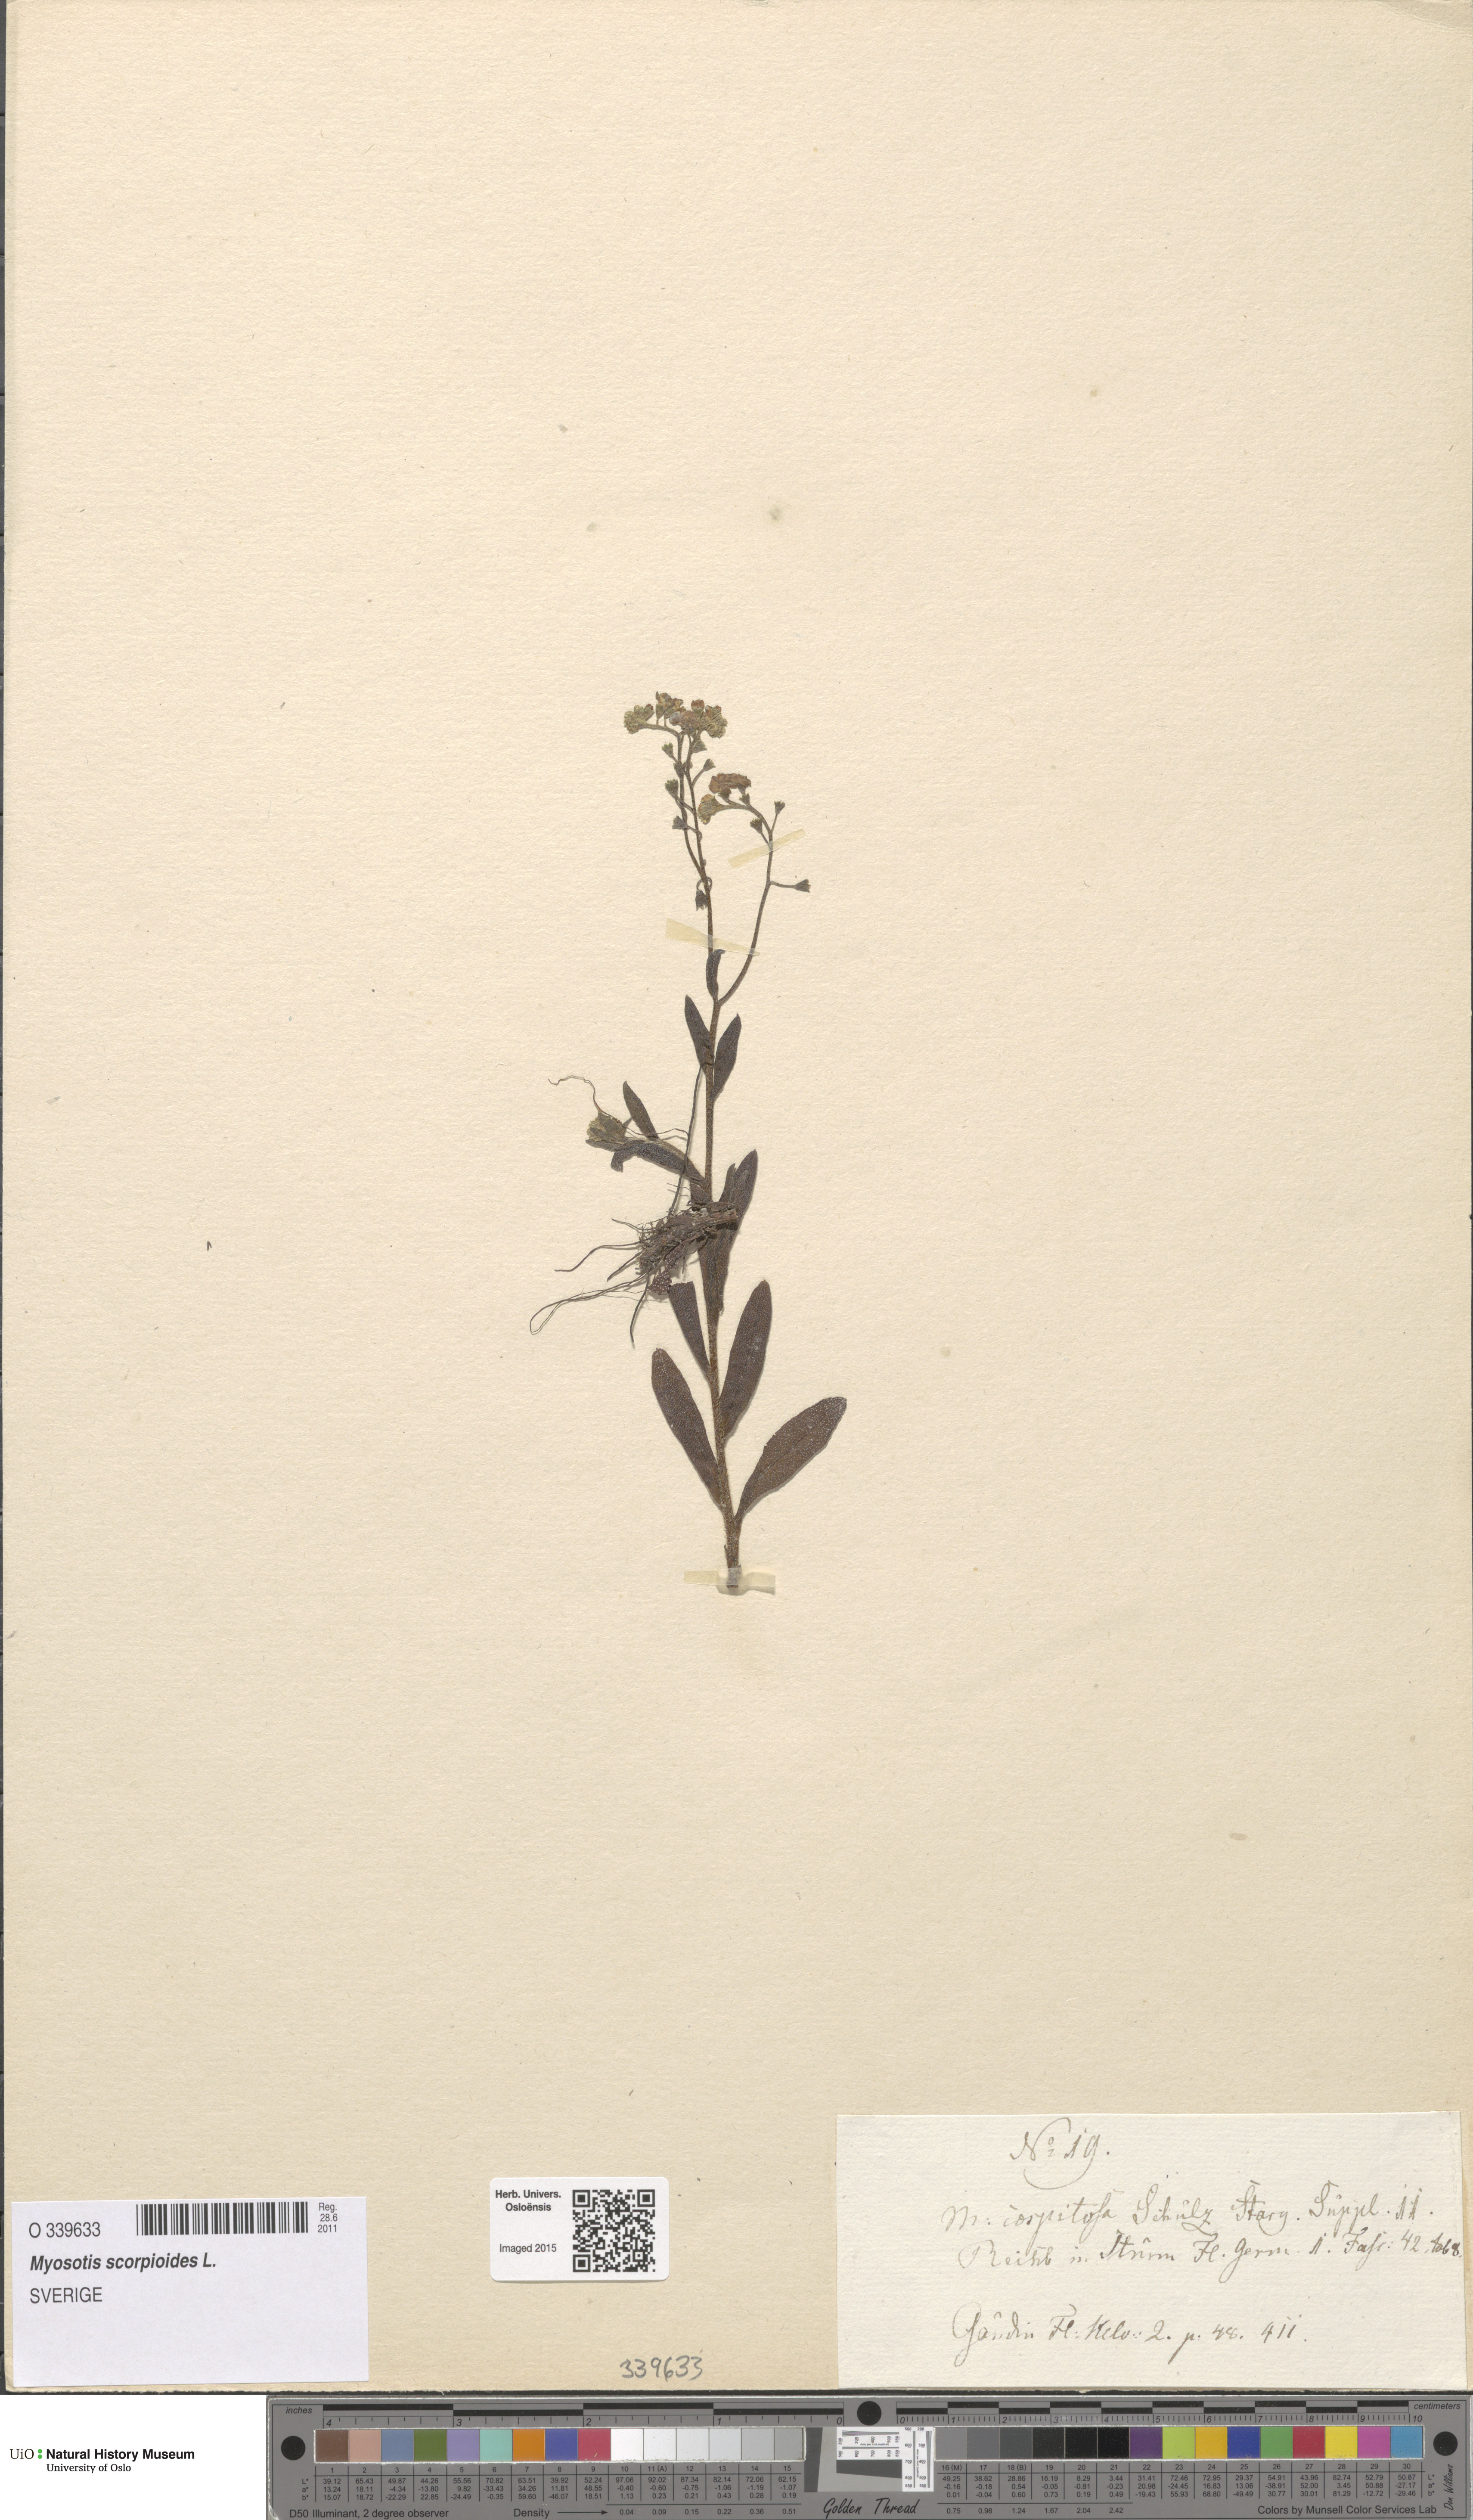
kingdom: Plantae
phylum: Tracheophyta
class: Magnoliopsida
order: Boraginales
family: Boraginaceae
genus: Myosotis
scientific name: Myosotis scorpioides
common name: Water forget-me-not
